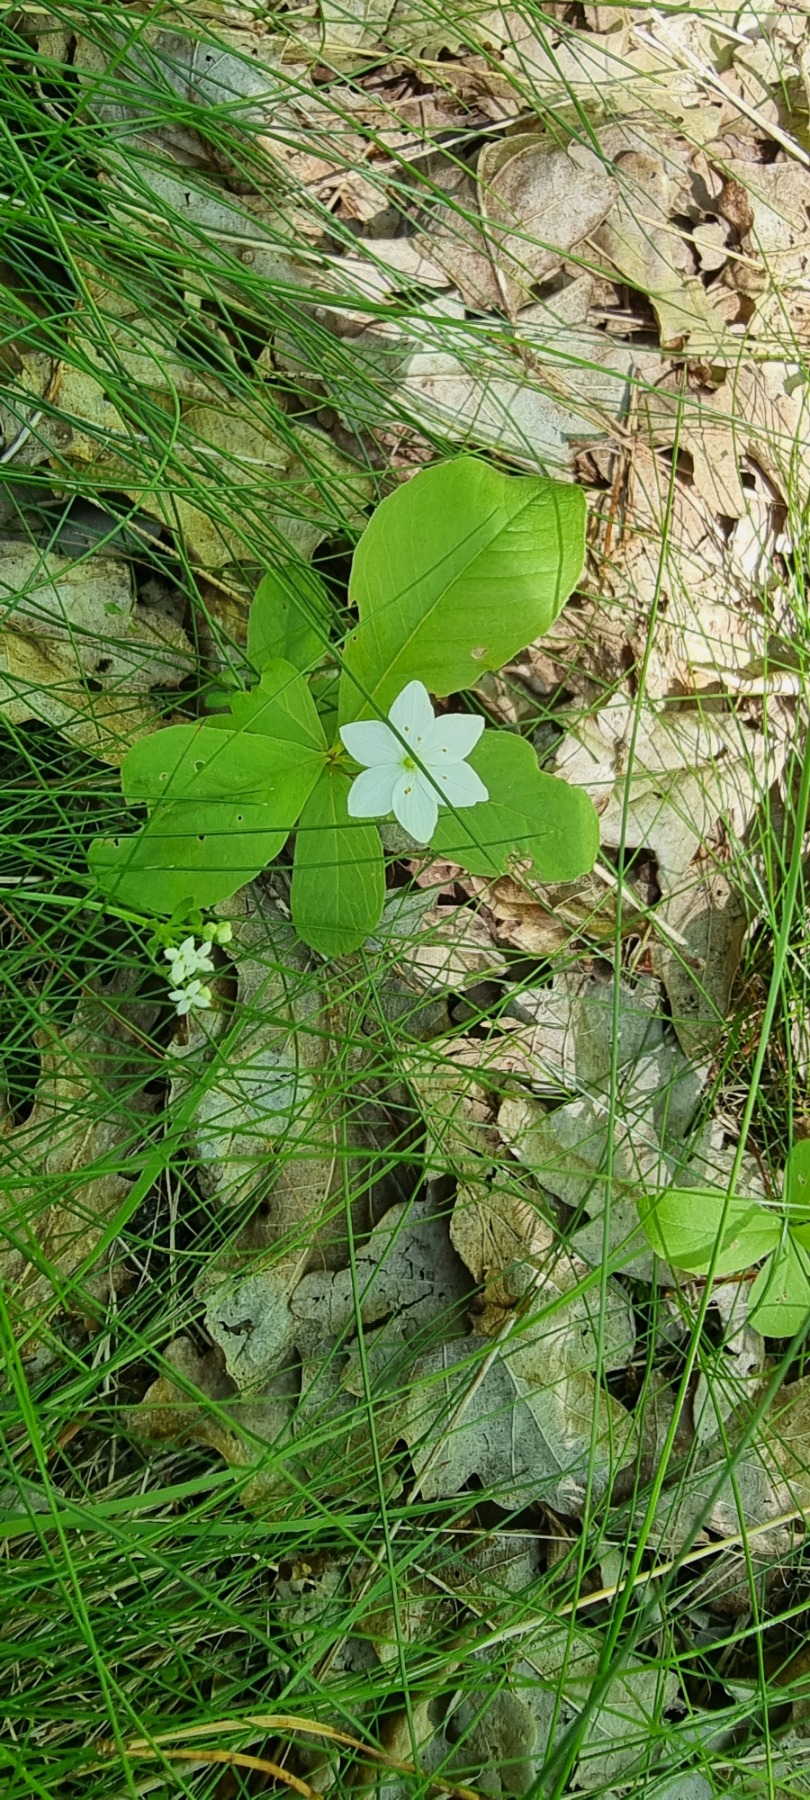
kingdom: Plantae
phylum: Tracheophyta
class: Magnoliopsida
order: Ericales
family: Primulaceae
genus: Lysimachia
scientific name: Lysimachia europaea
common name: Skovstjerne
